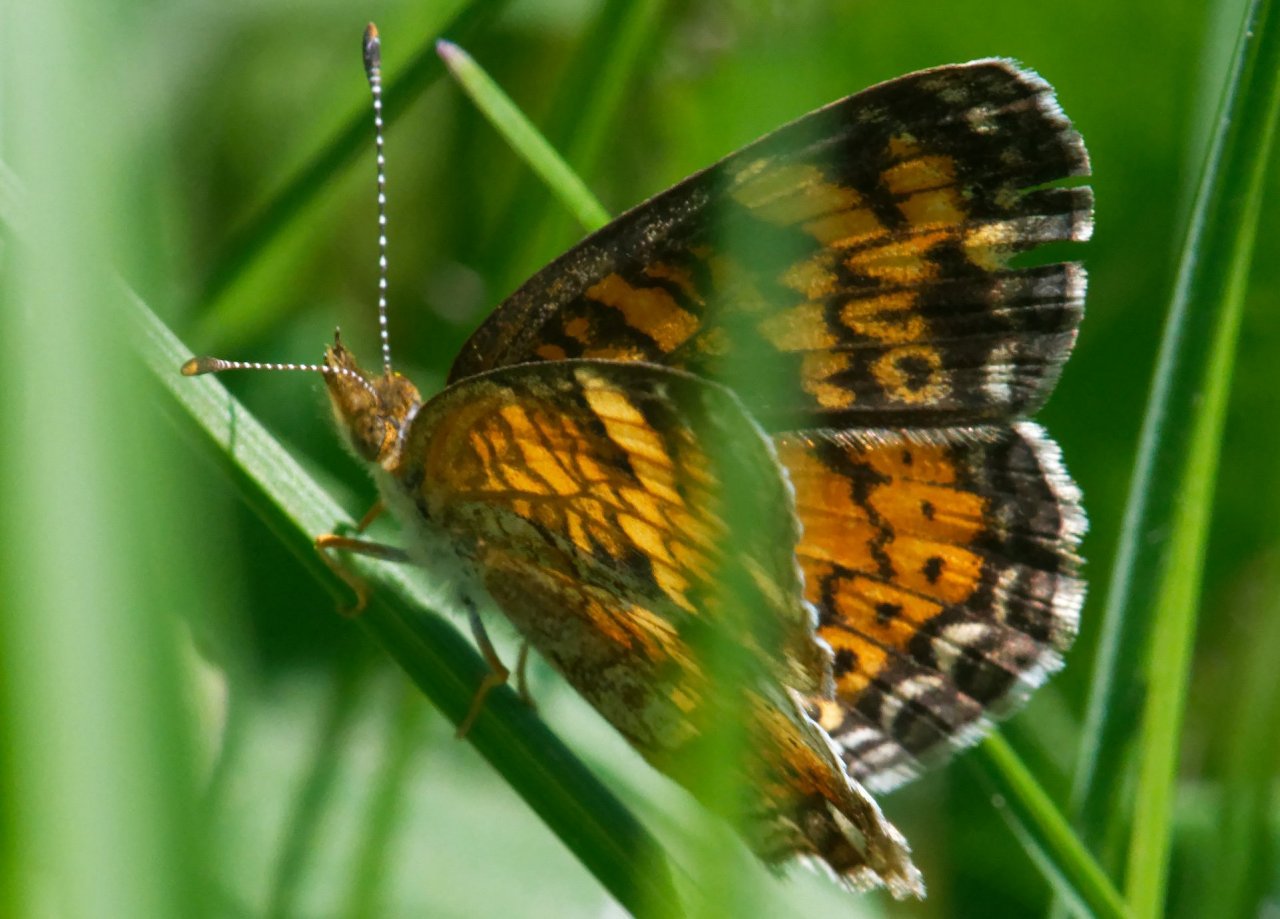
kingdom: Animalia
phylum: Arthropoda
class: Insecta
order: Lepidoptera
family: Nymphalidae
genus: Phyciodes
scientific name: Phyciodes
